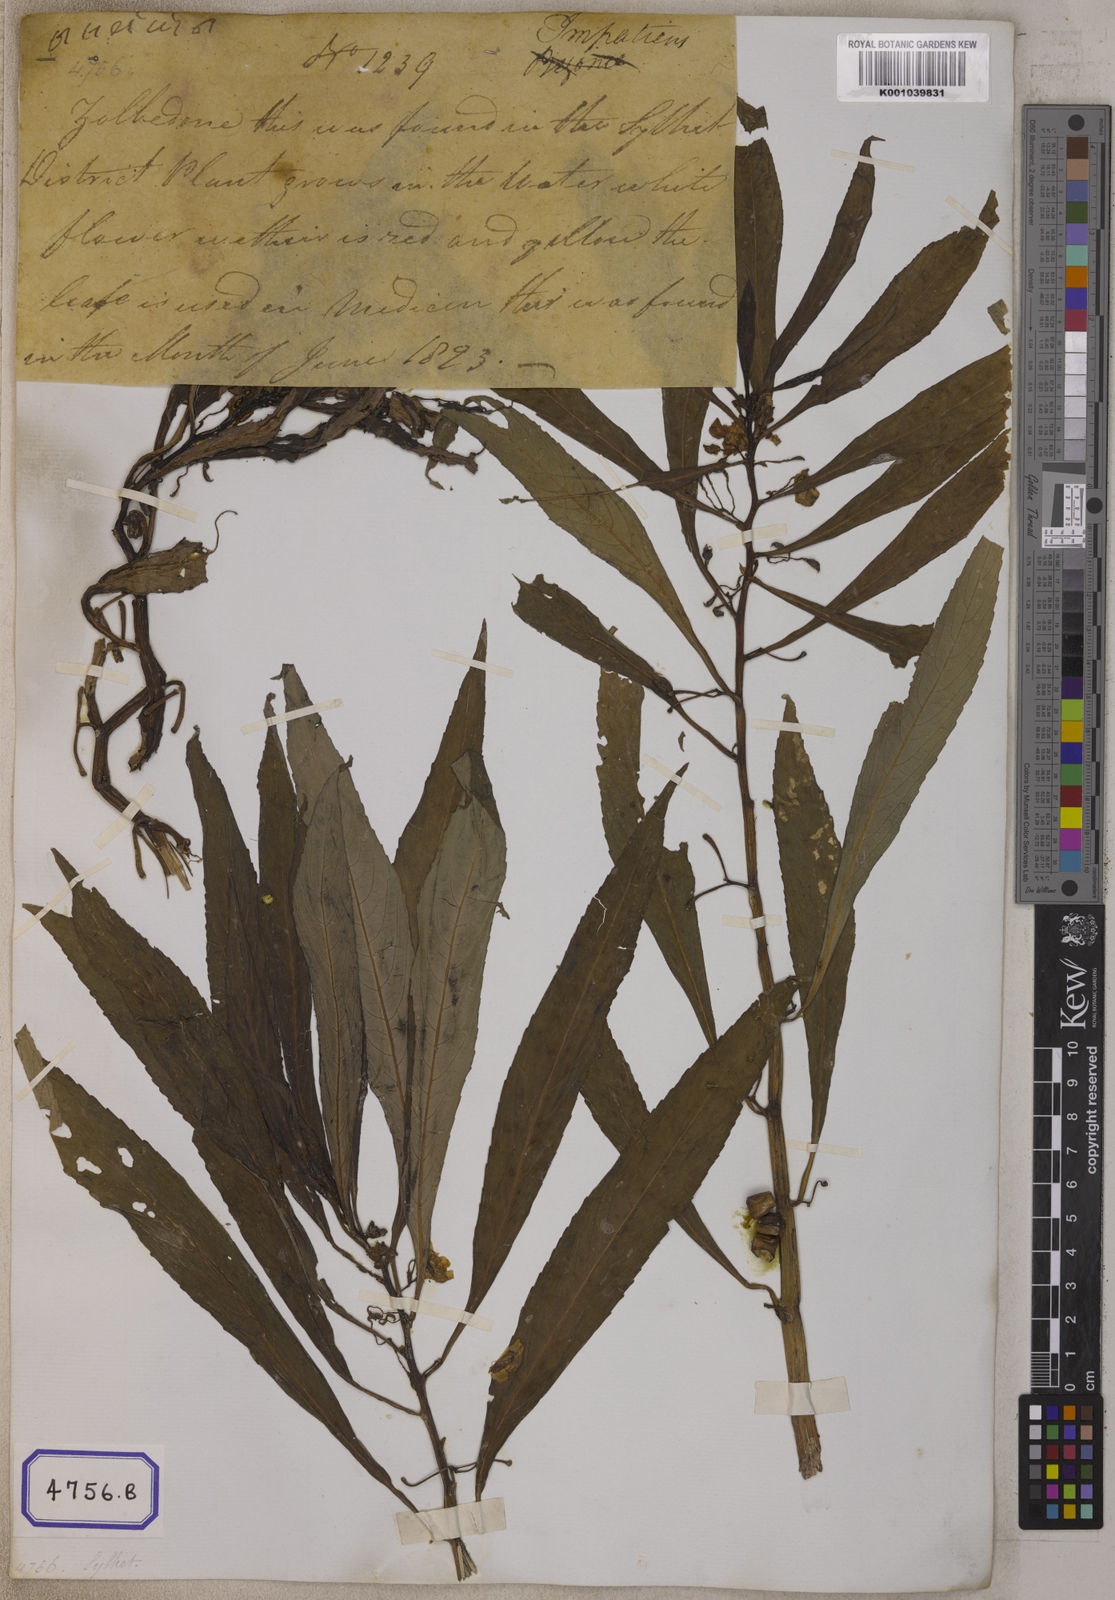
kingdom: Plantae
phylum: Tracheophyta
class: Magnoliopsida
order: Ericales
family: Balsaminaceae
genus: Hydrocera
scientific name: Hydrocera triflora
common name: Marsh henna
